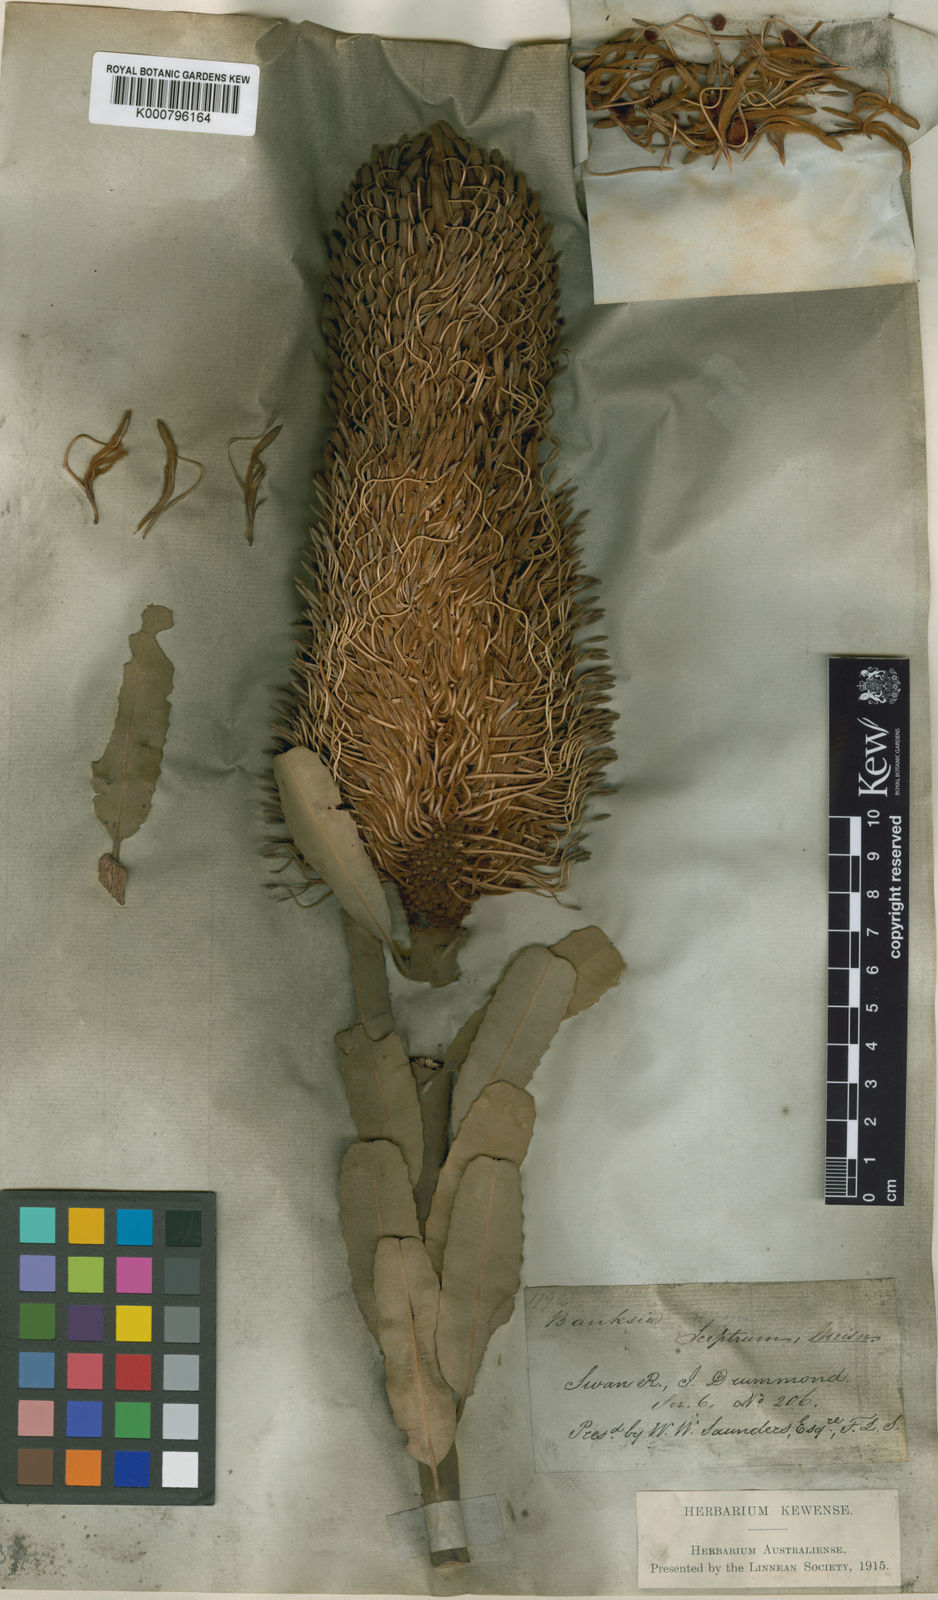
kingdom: Plantae
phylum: Tracheophyta
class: Magnoliopsida
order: Proteales
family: Proteaceae
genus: Banksia
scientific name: Banksia sceptrum
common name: Sceptre banksia
